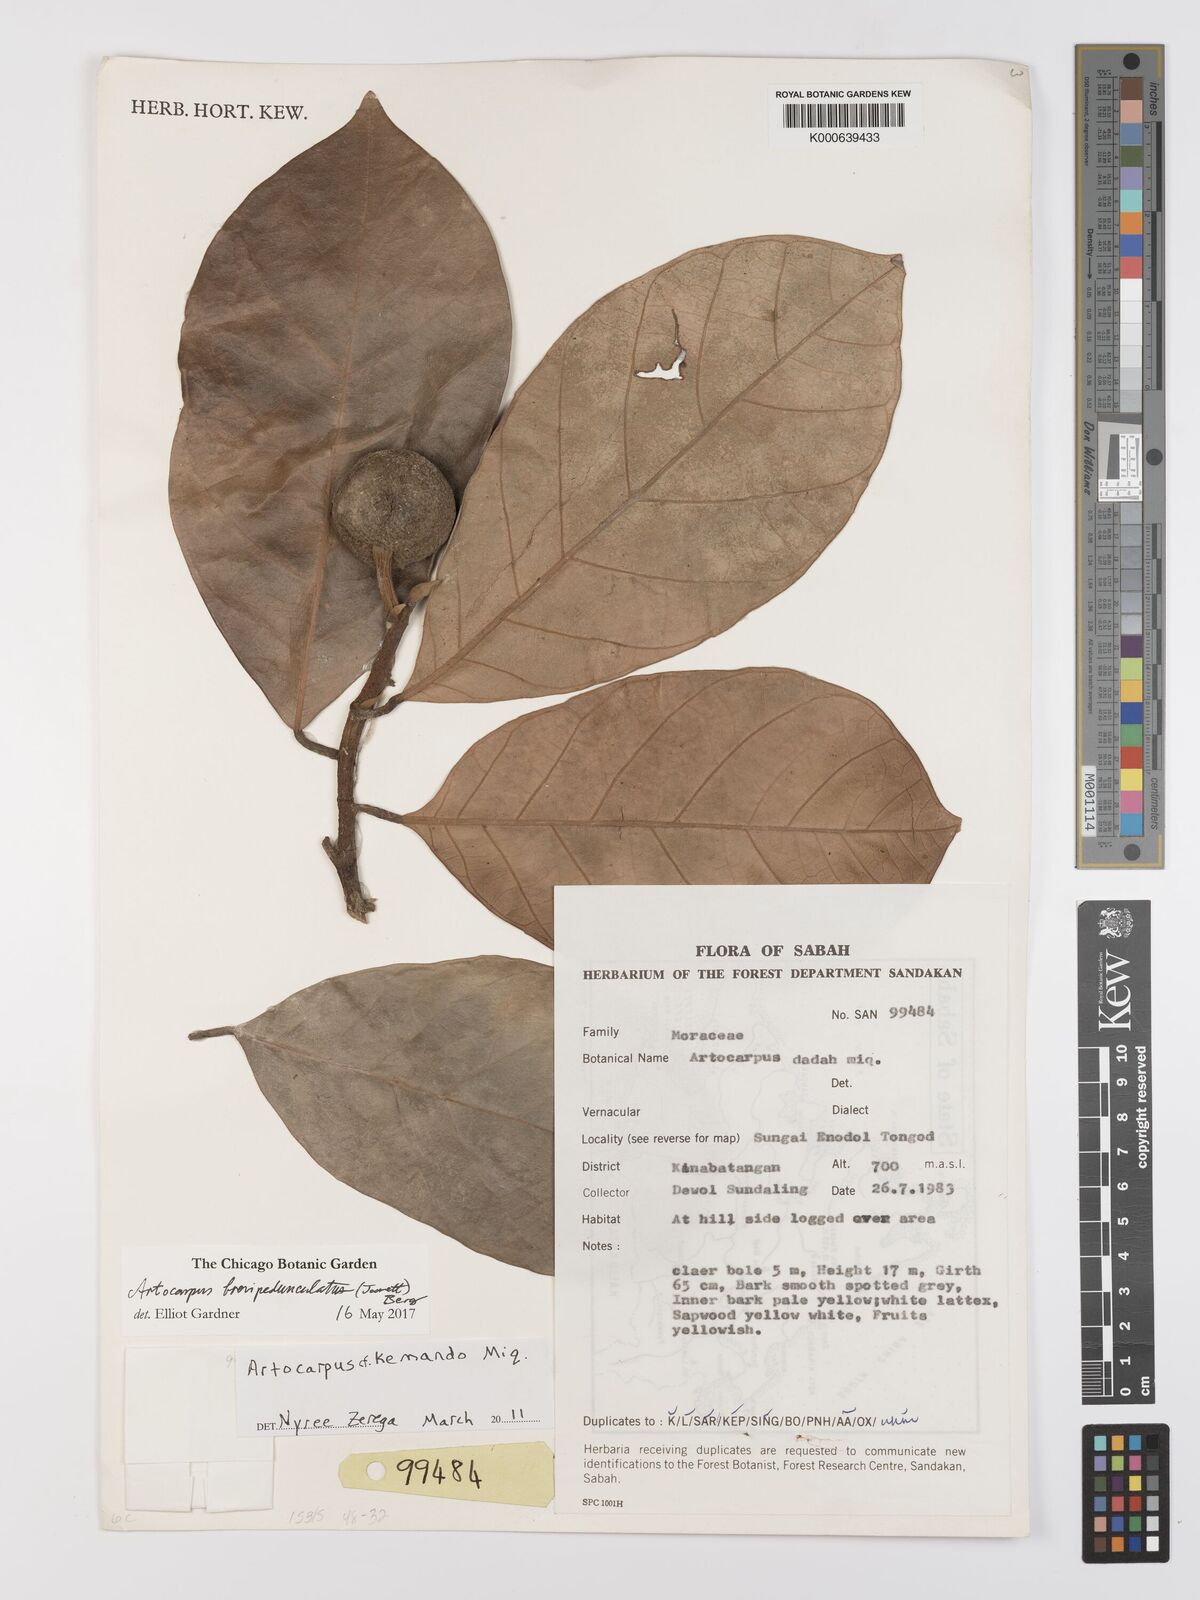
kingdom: Plantae
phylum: Tracheophyta
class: Magnoliopsida
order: Rosales
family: Moraceae
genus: Artocarpus
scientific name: Artocarpus brevipedunculatus
